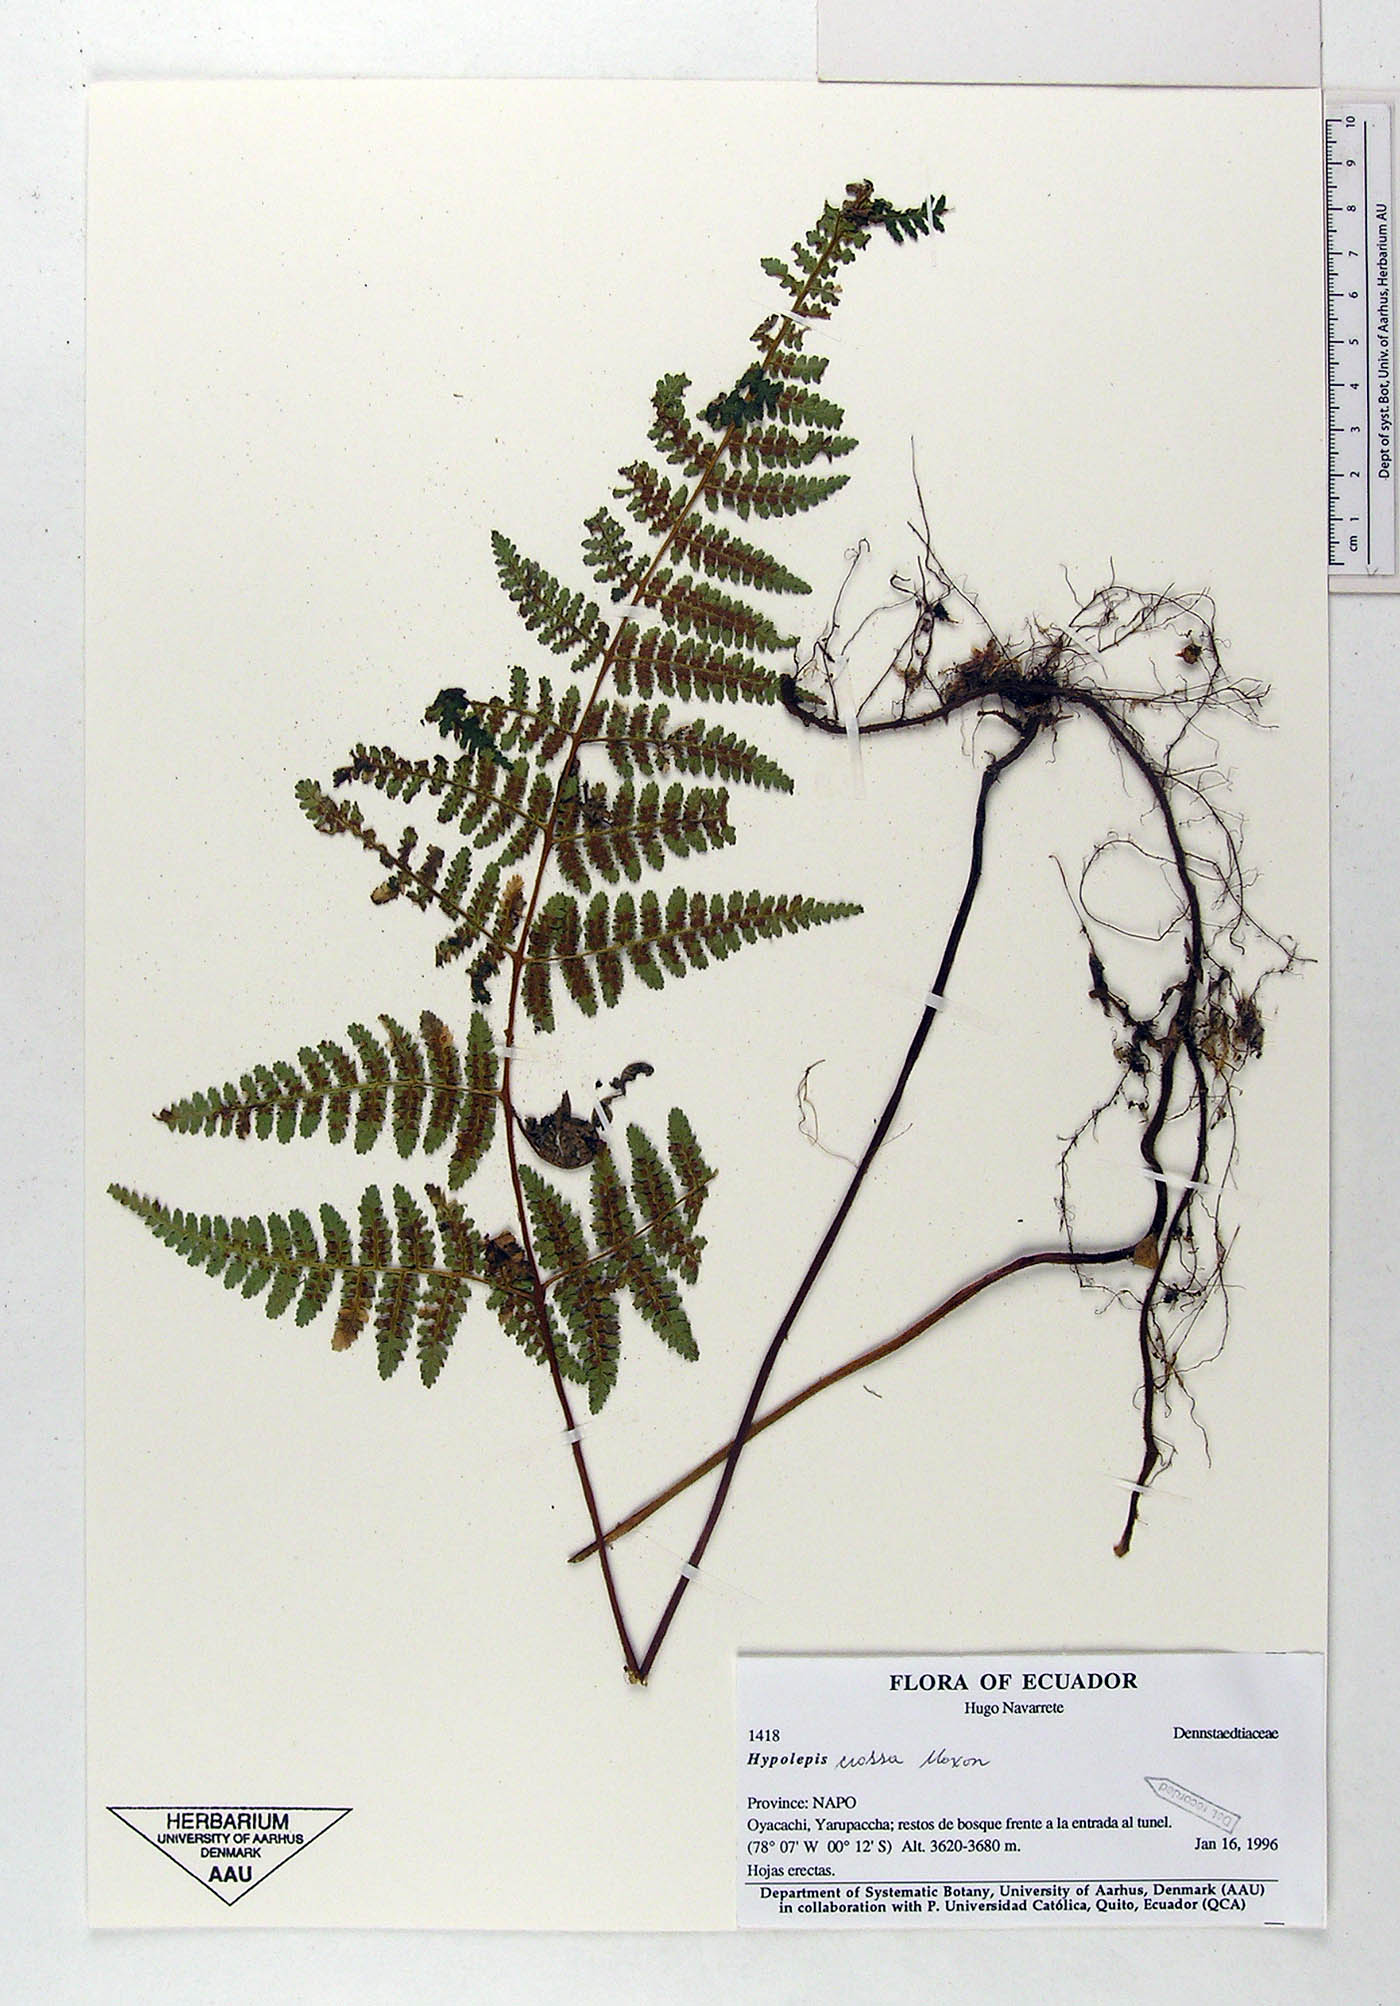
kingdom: Plantae
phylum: Tracheophyta
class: Polypodiopsida
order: Polypodiales
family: Dennstaedtiaceae
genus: Hypolepis
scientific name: Hypolepis crassa
